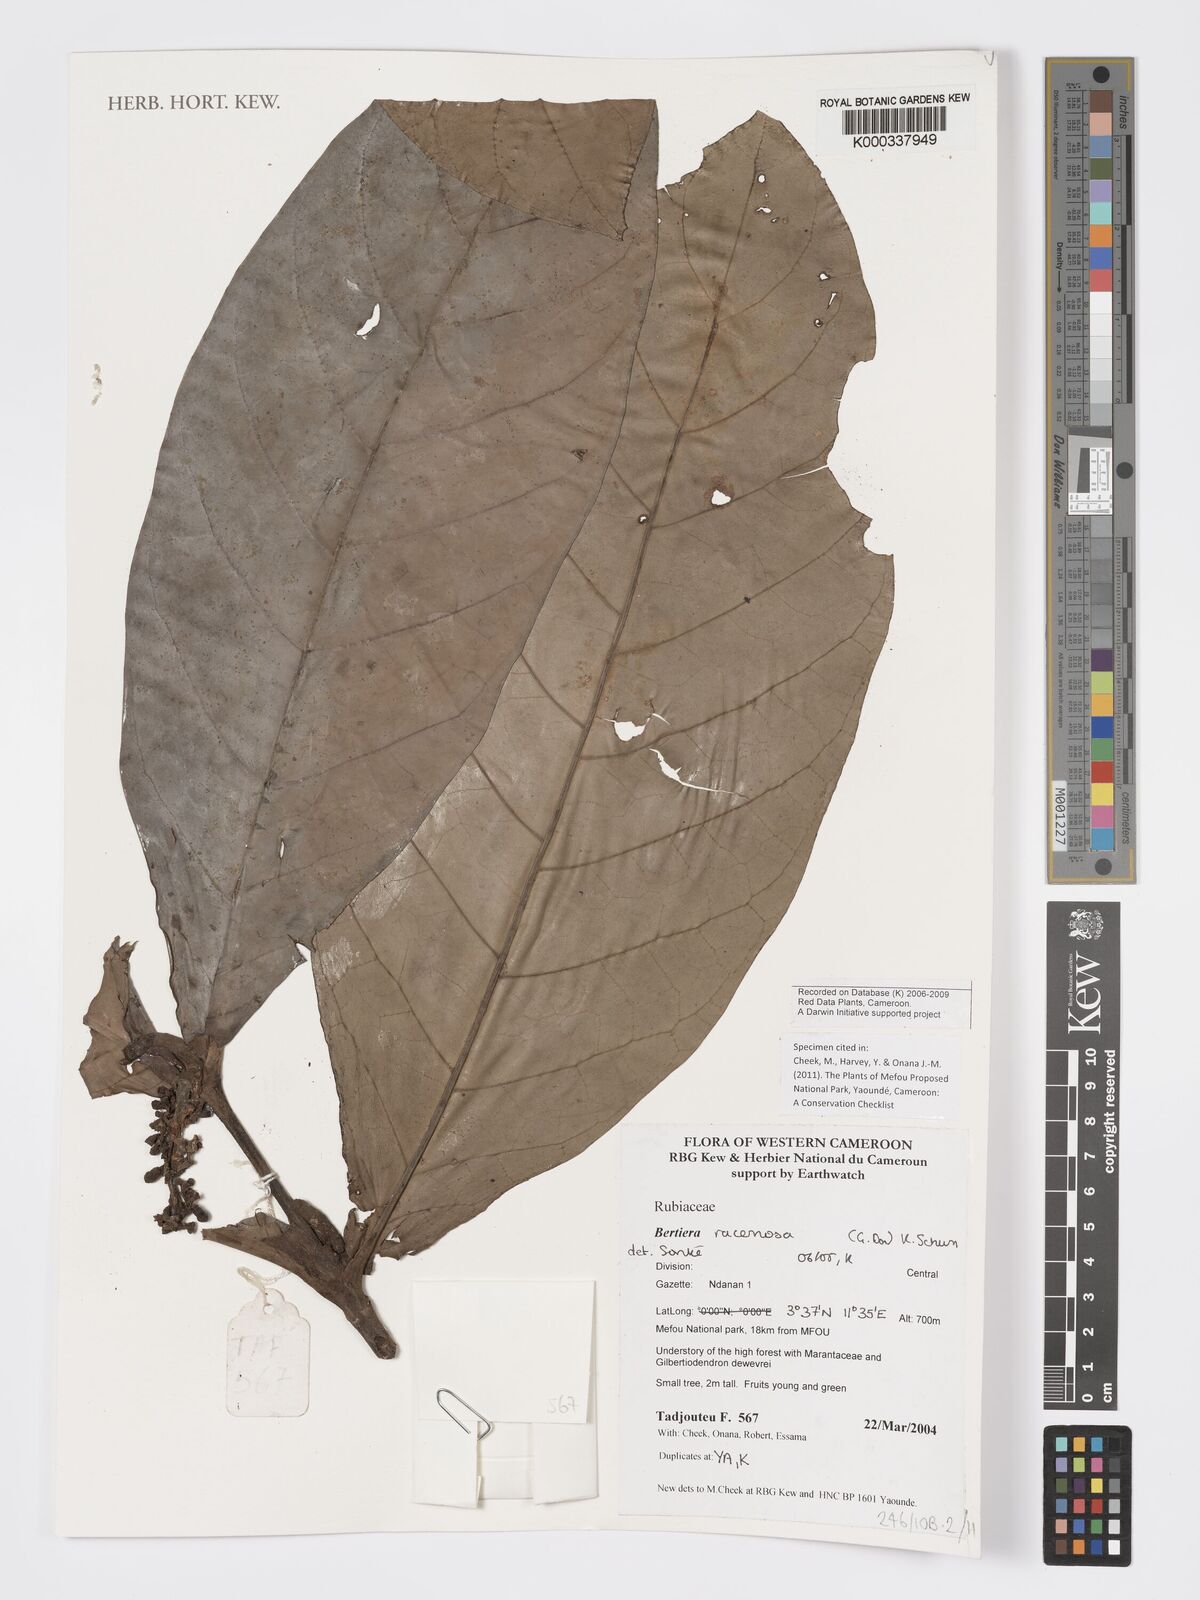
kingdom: Plantae
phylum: Tracheophyta
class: Magnoliopsida
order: Gentianales
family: Rubiaceae
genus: Bertiera
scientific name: Bertiera racemosa
